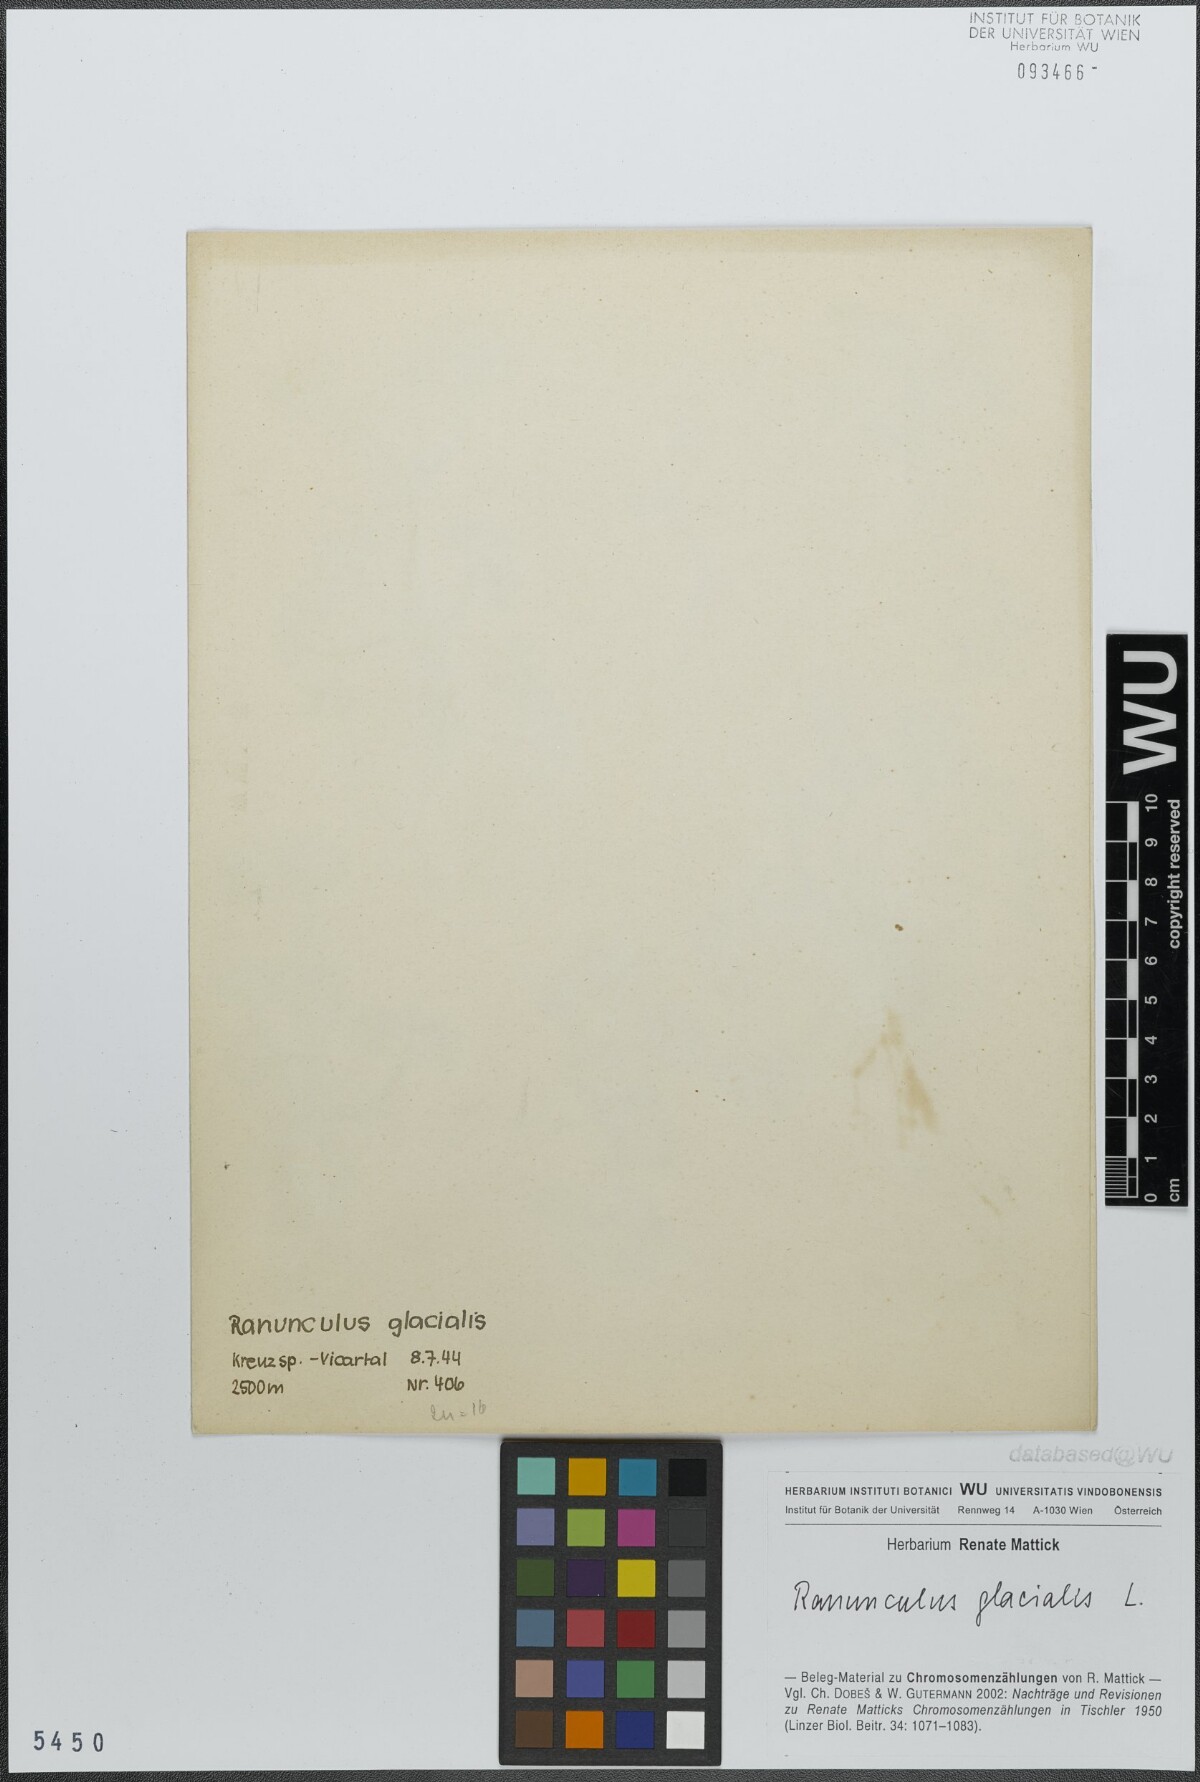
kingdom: Plantae
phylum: Tracheophyta
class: Magnoliopsida
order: Ranunculales
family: Ranunculaceae
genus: Ranunculus
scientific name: Ranunculus glacialis
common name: Glacier buttercup
